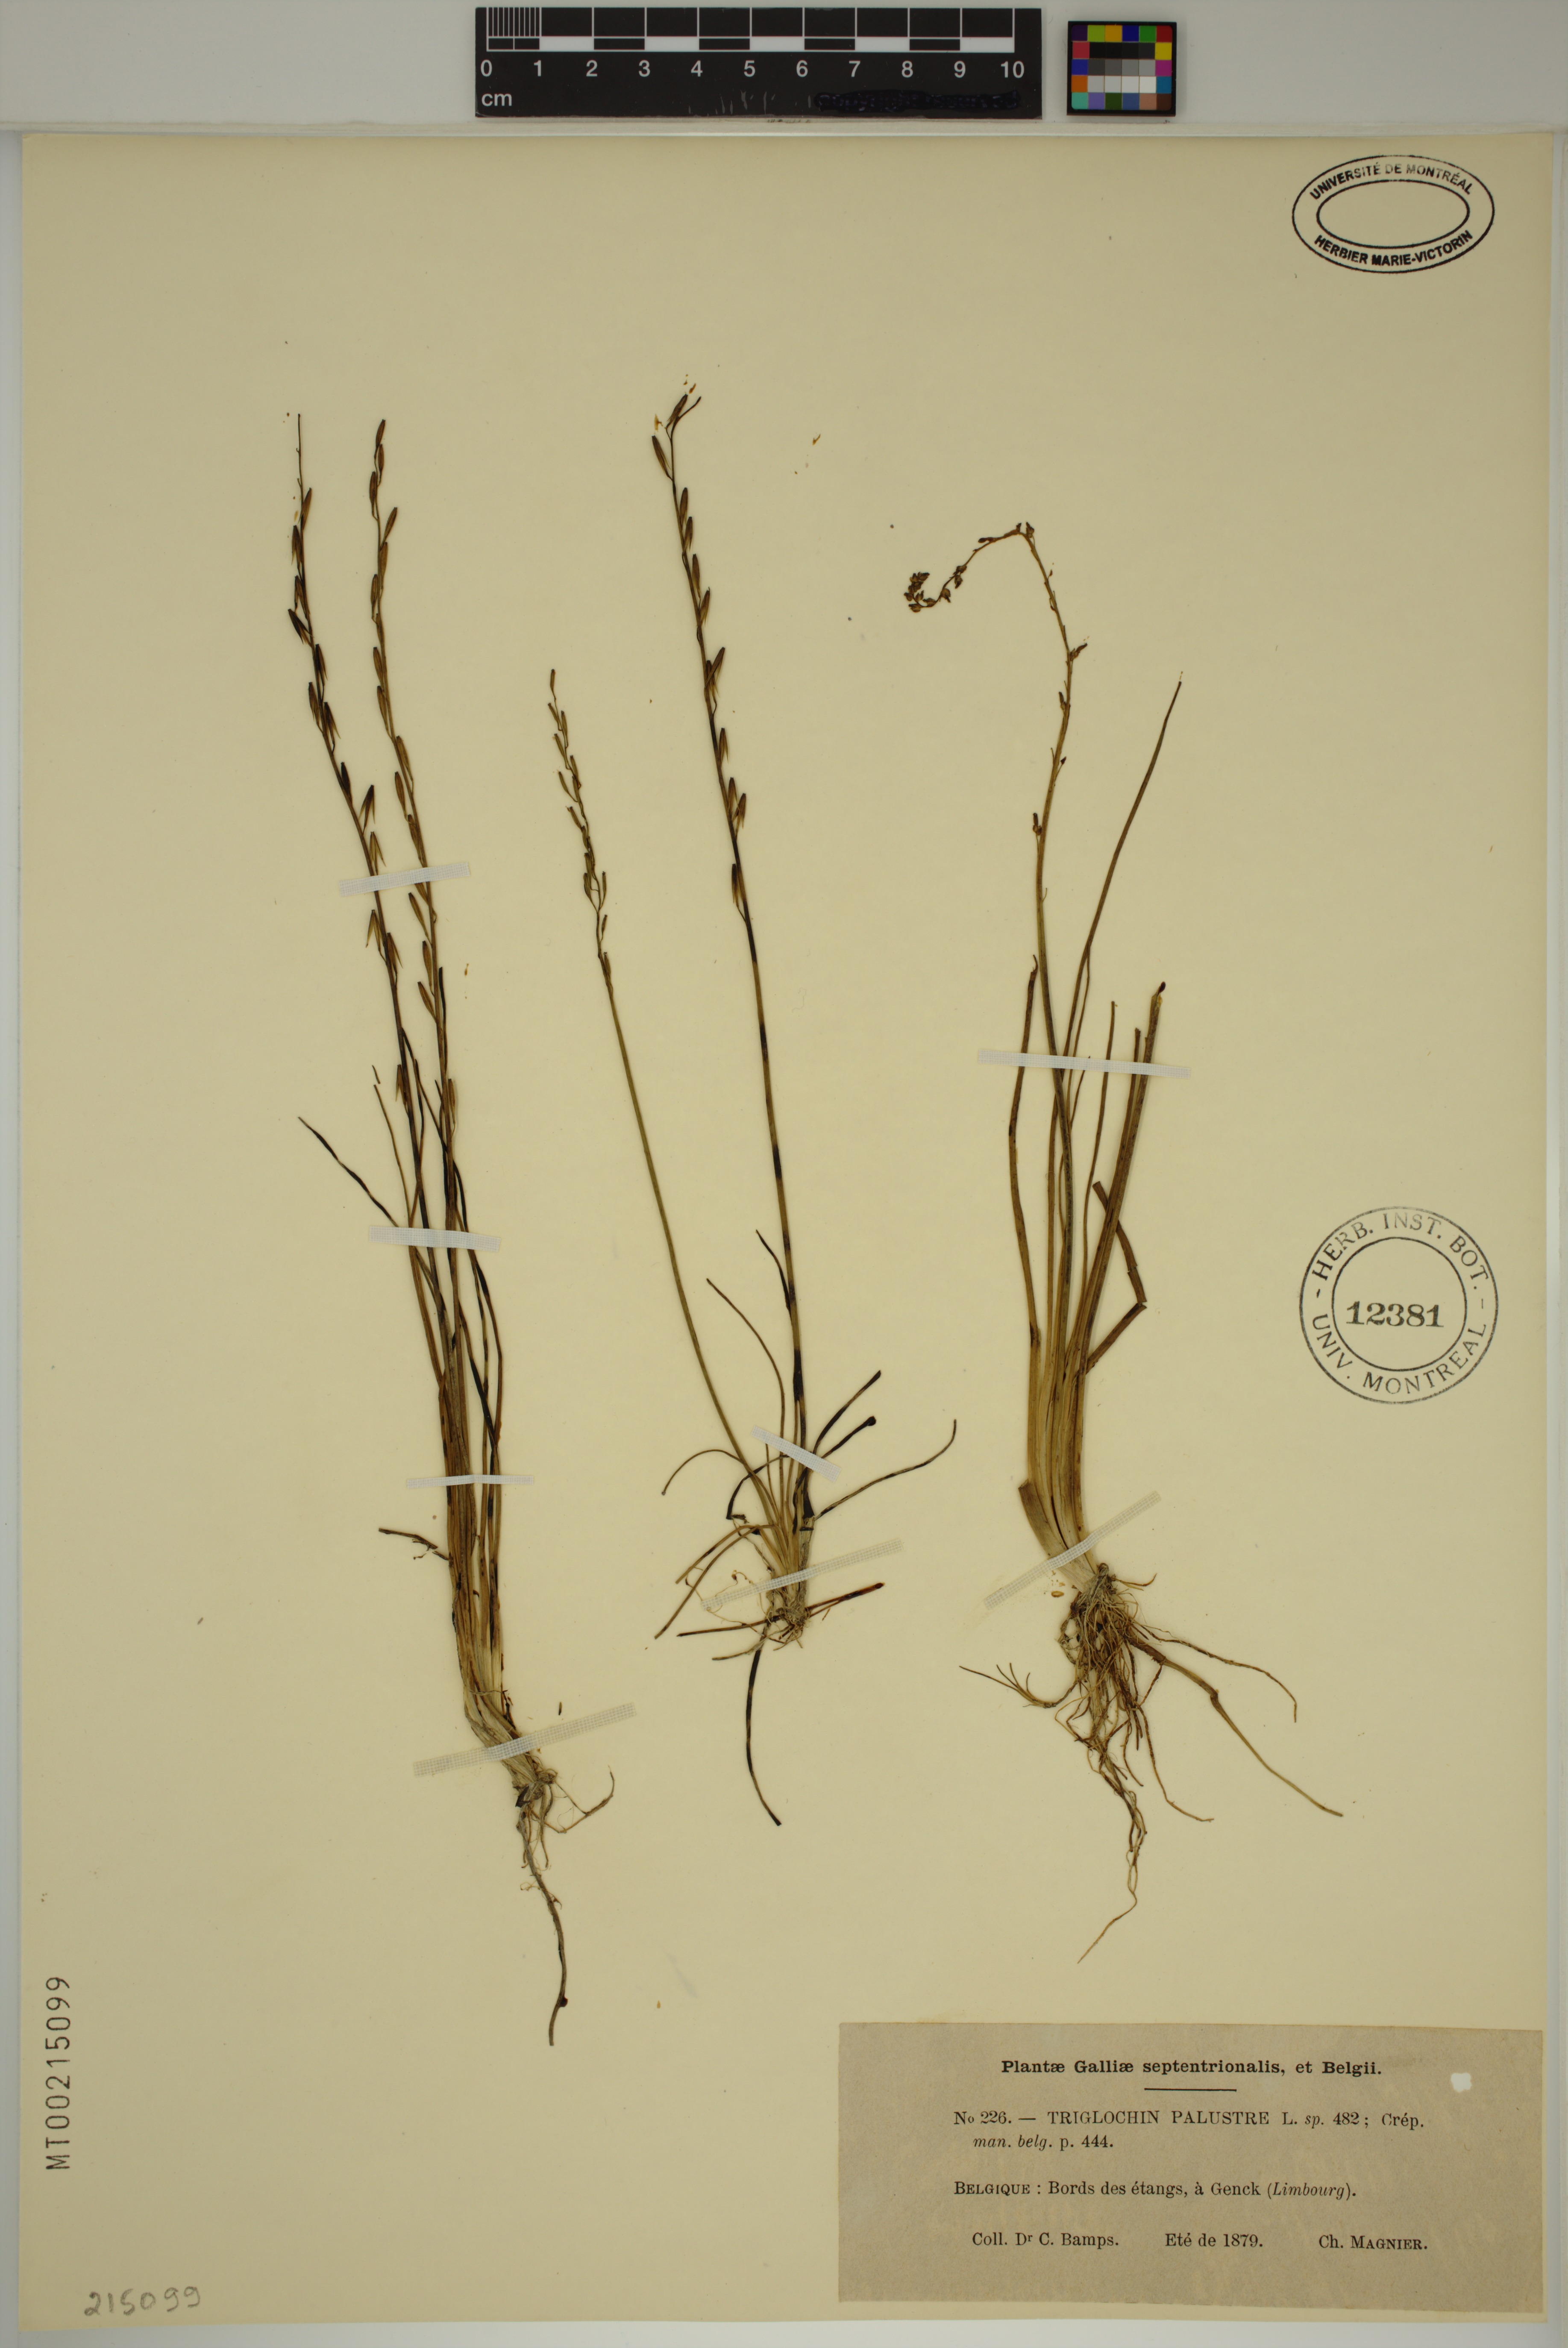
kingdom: Plantae
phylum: Tracheophyta
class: Liliopsida
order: Alismatales
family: Juncaginaceae
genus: Triglochin
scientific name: Triglochin palustris
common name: Marsh arrowgrass
